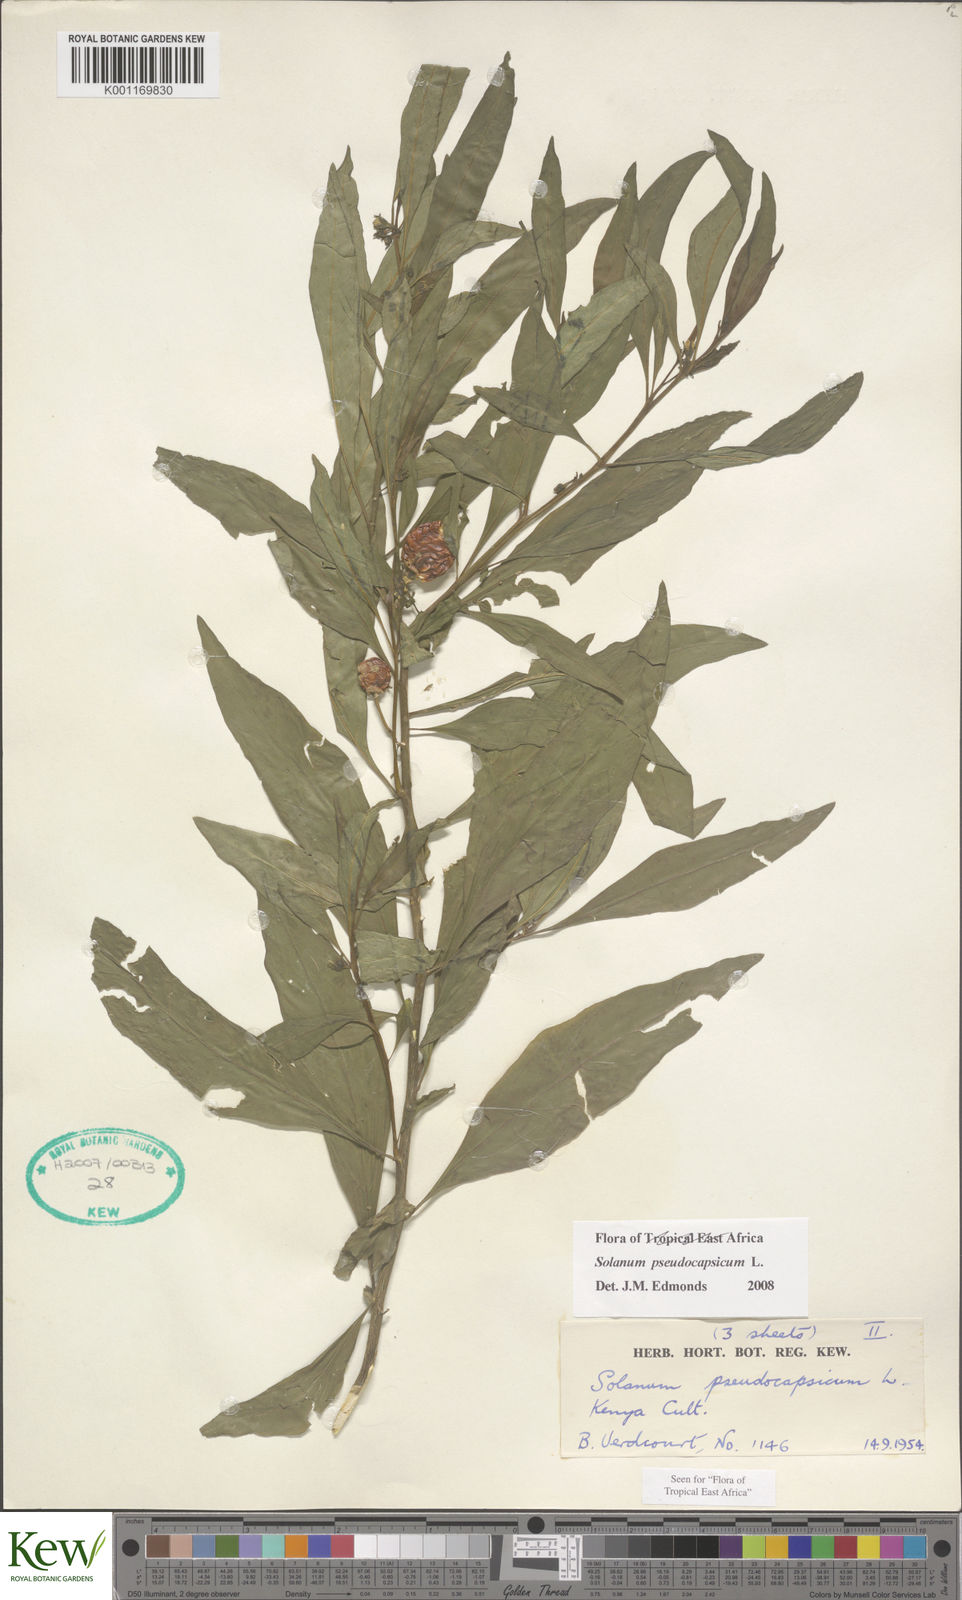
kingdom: Plantae
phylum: Tracheophyta
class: Magnoliopsida
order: Solanales
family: Solanaceae
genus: Solanum
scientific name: Solanum
